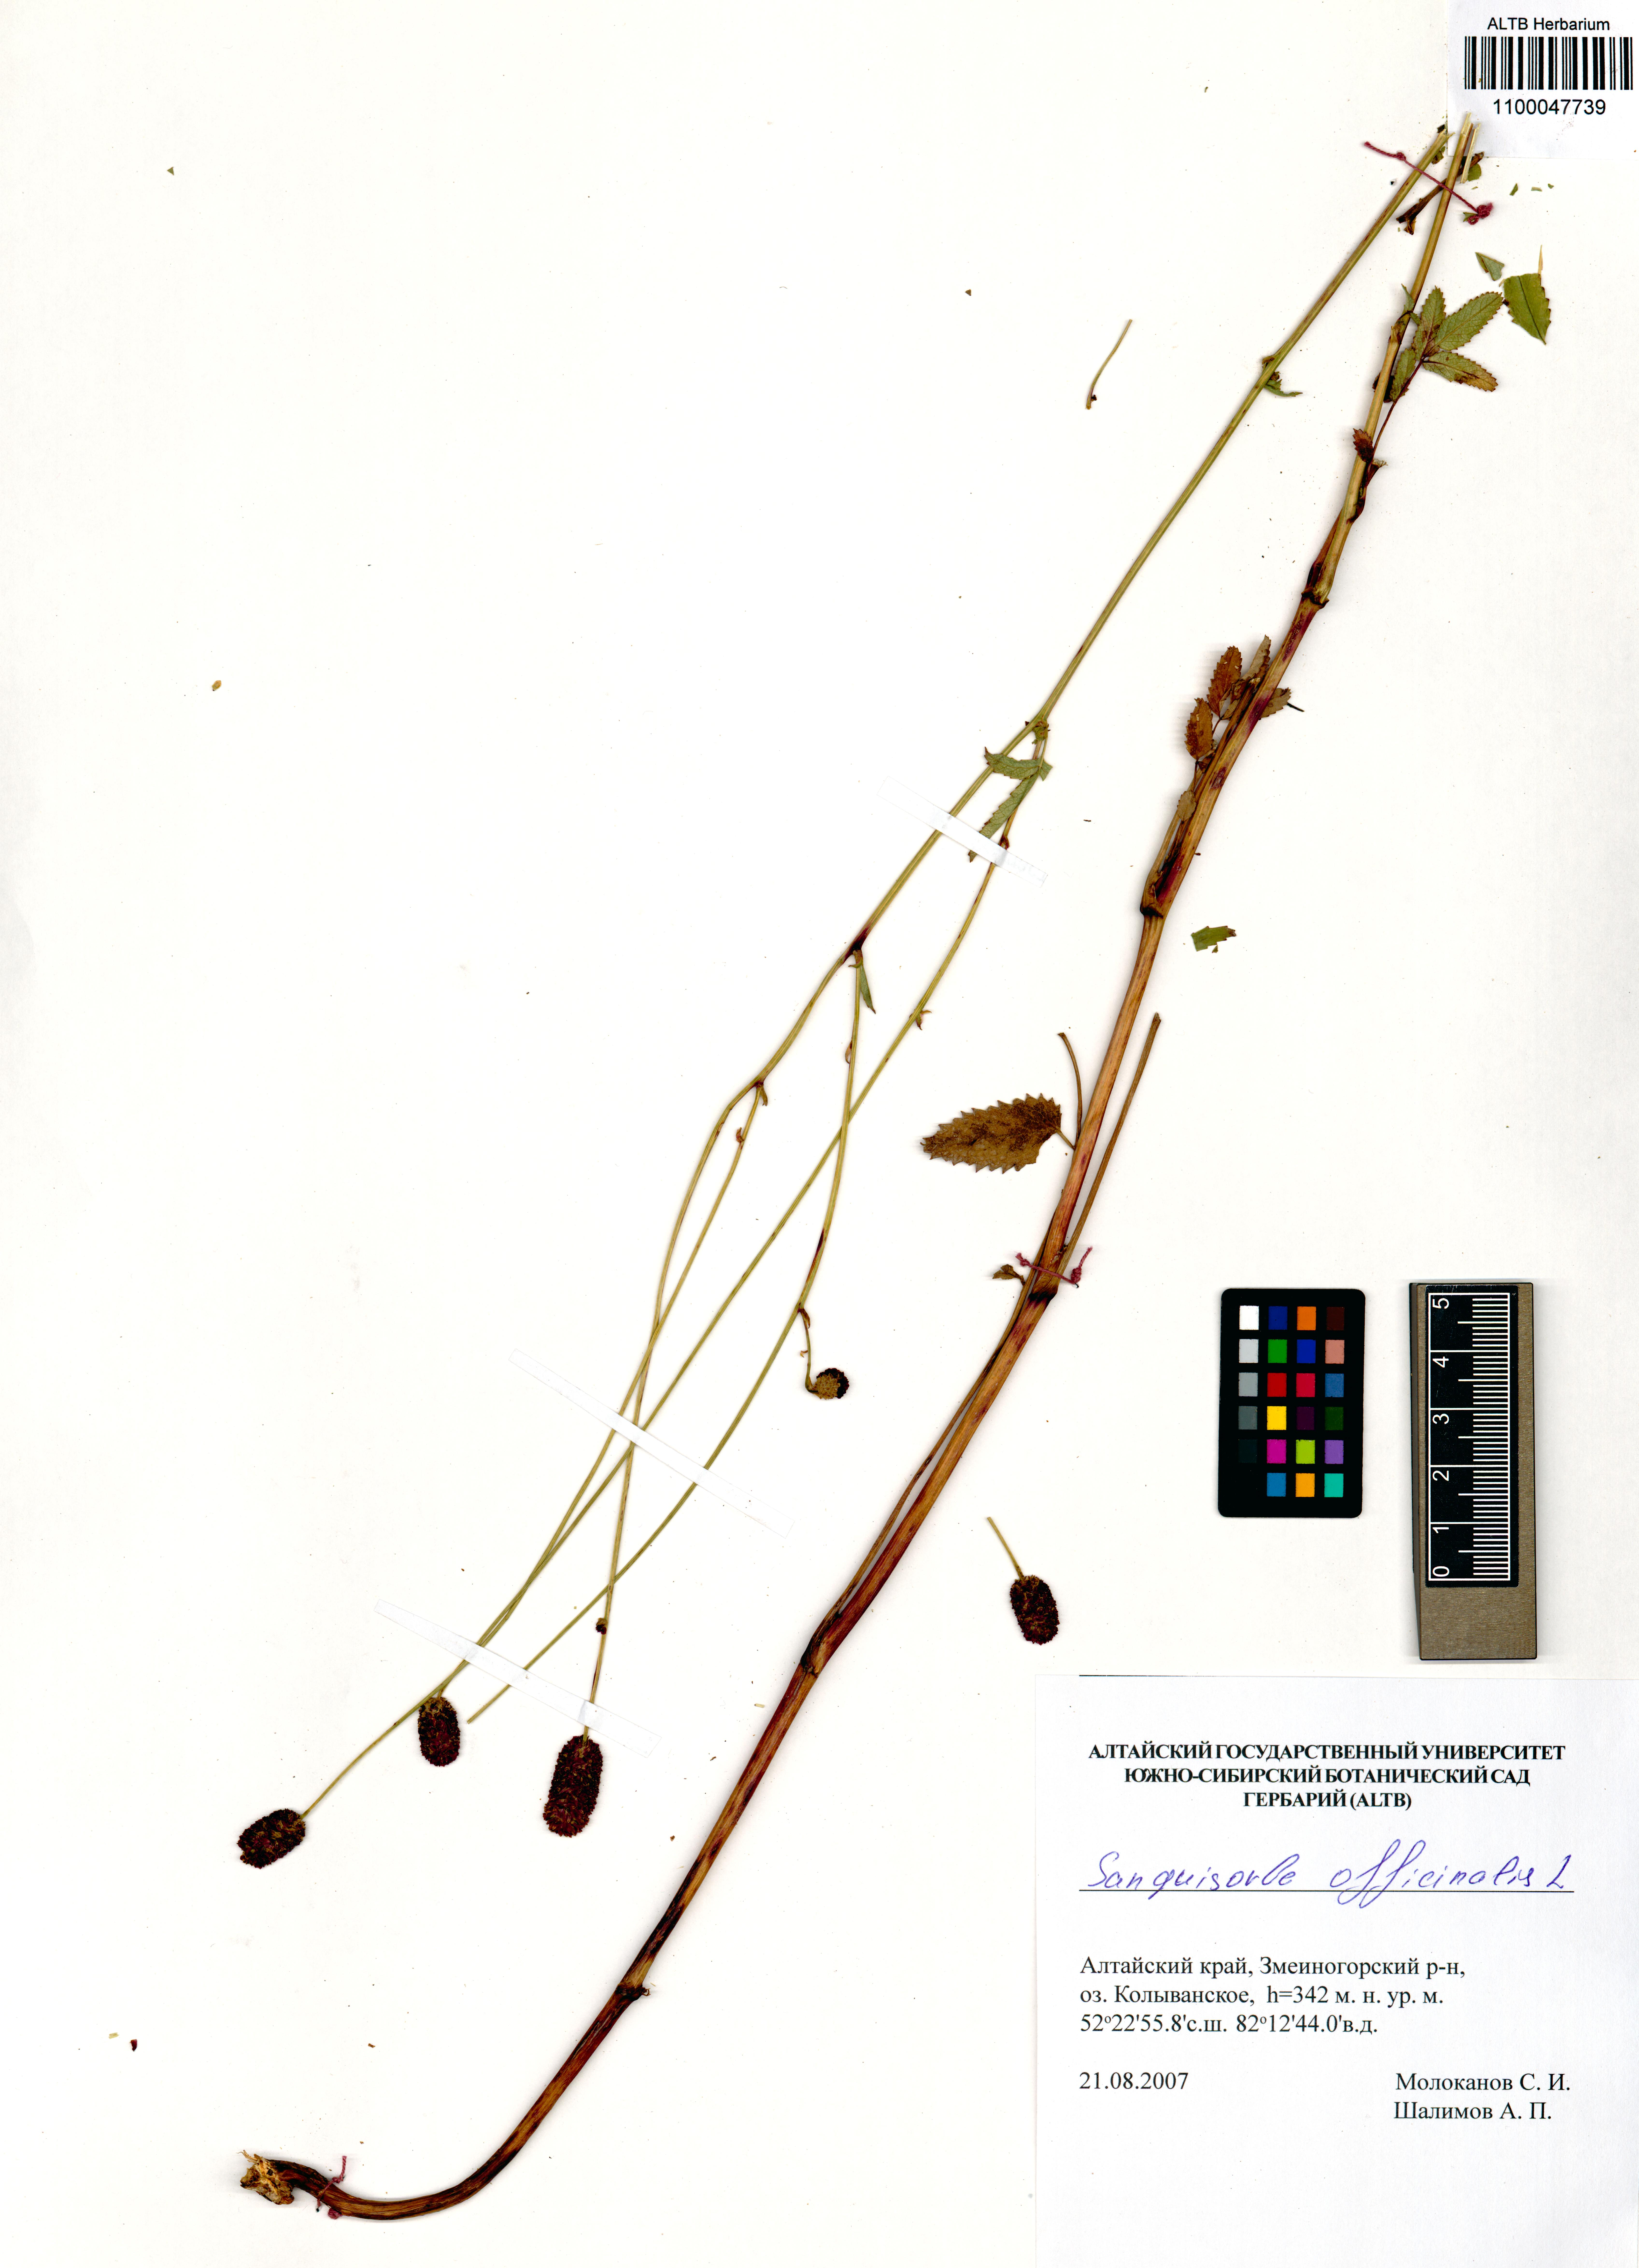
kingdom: Plantae
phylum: Tracheophyta
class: Magnoliopsida
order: Rosales
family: Rosaceae
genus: Sanguisorba
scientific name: Sanguisorba officinalis
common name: Great burnet
